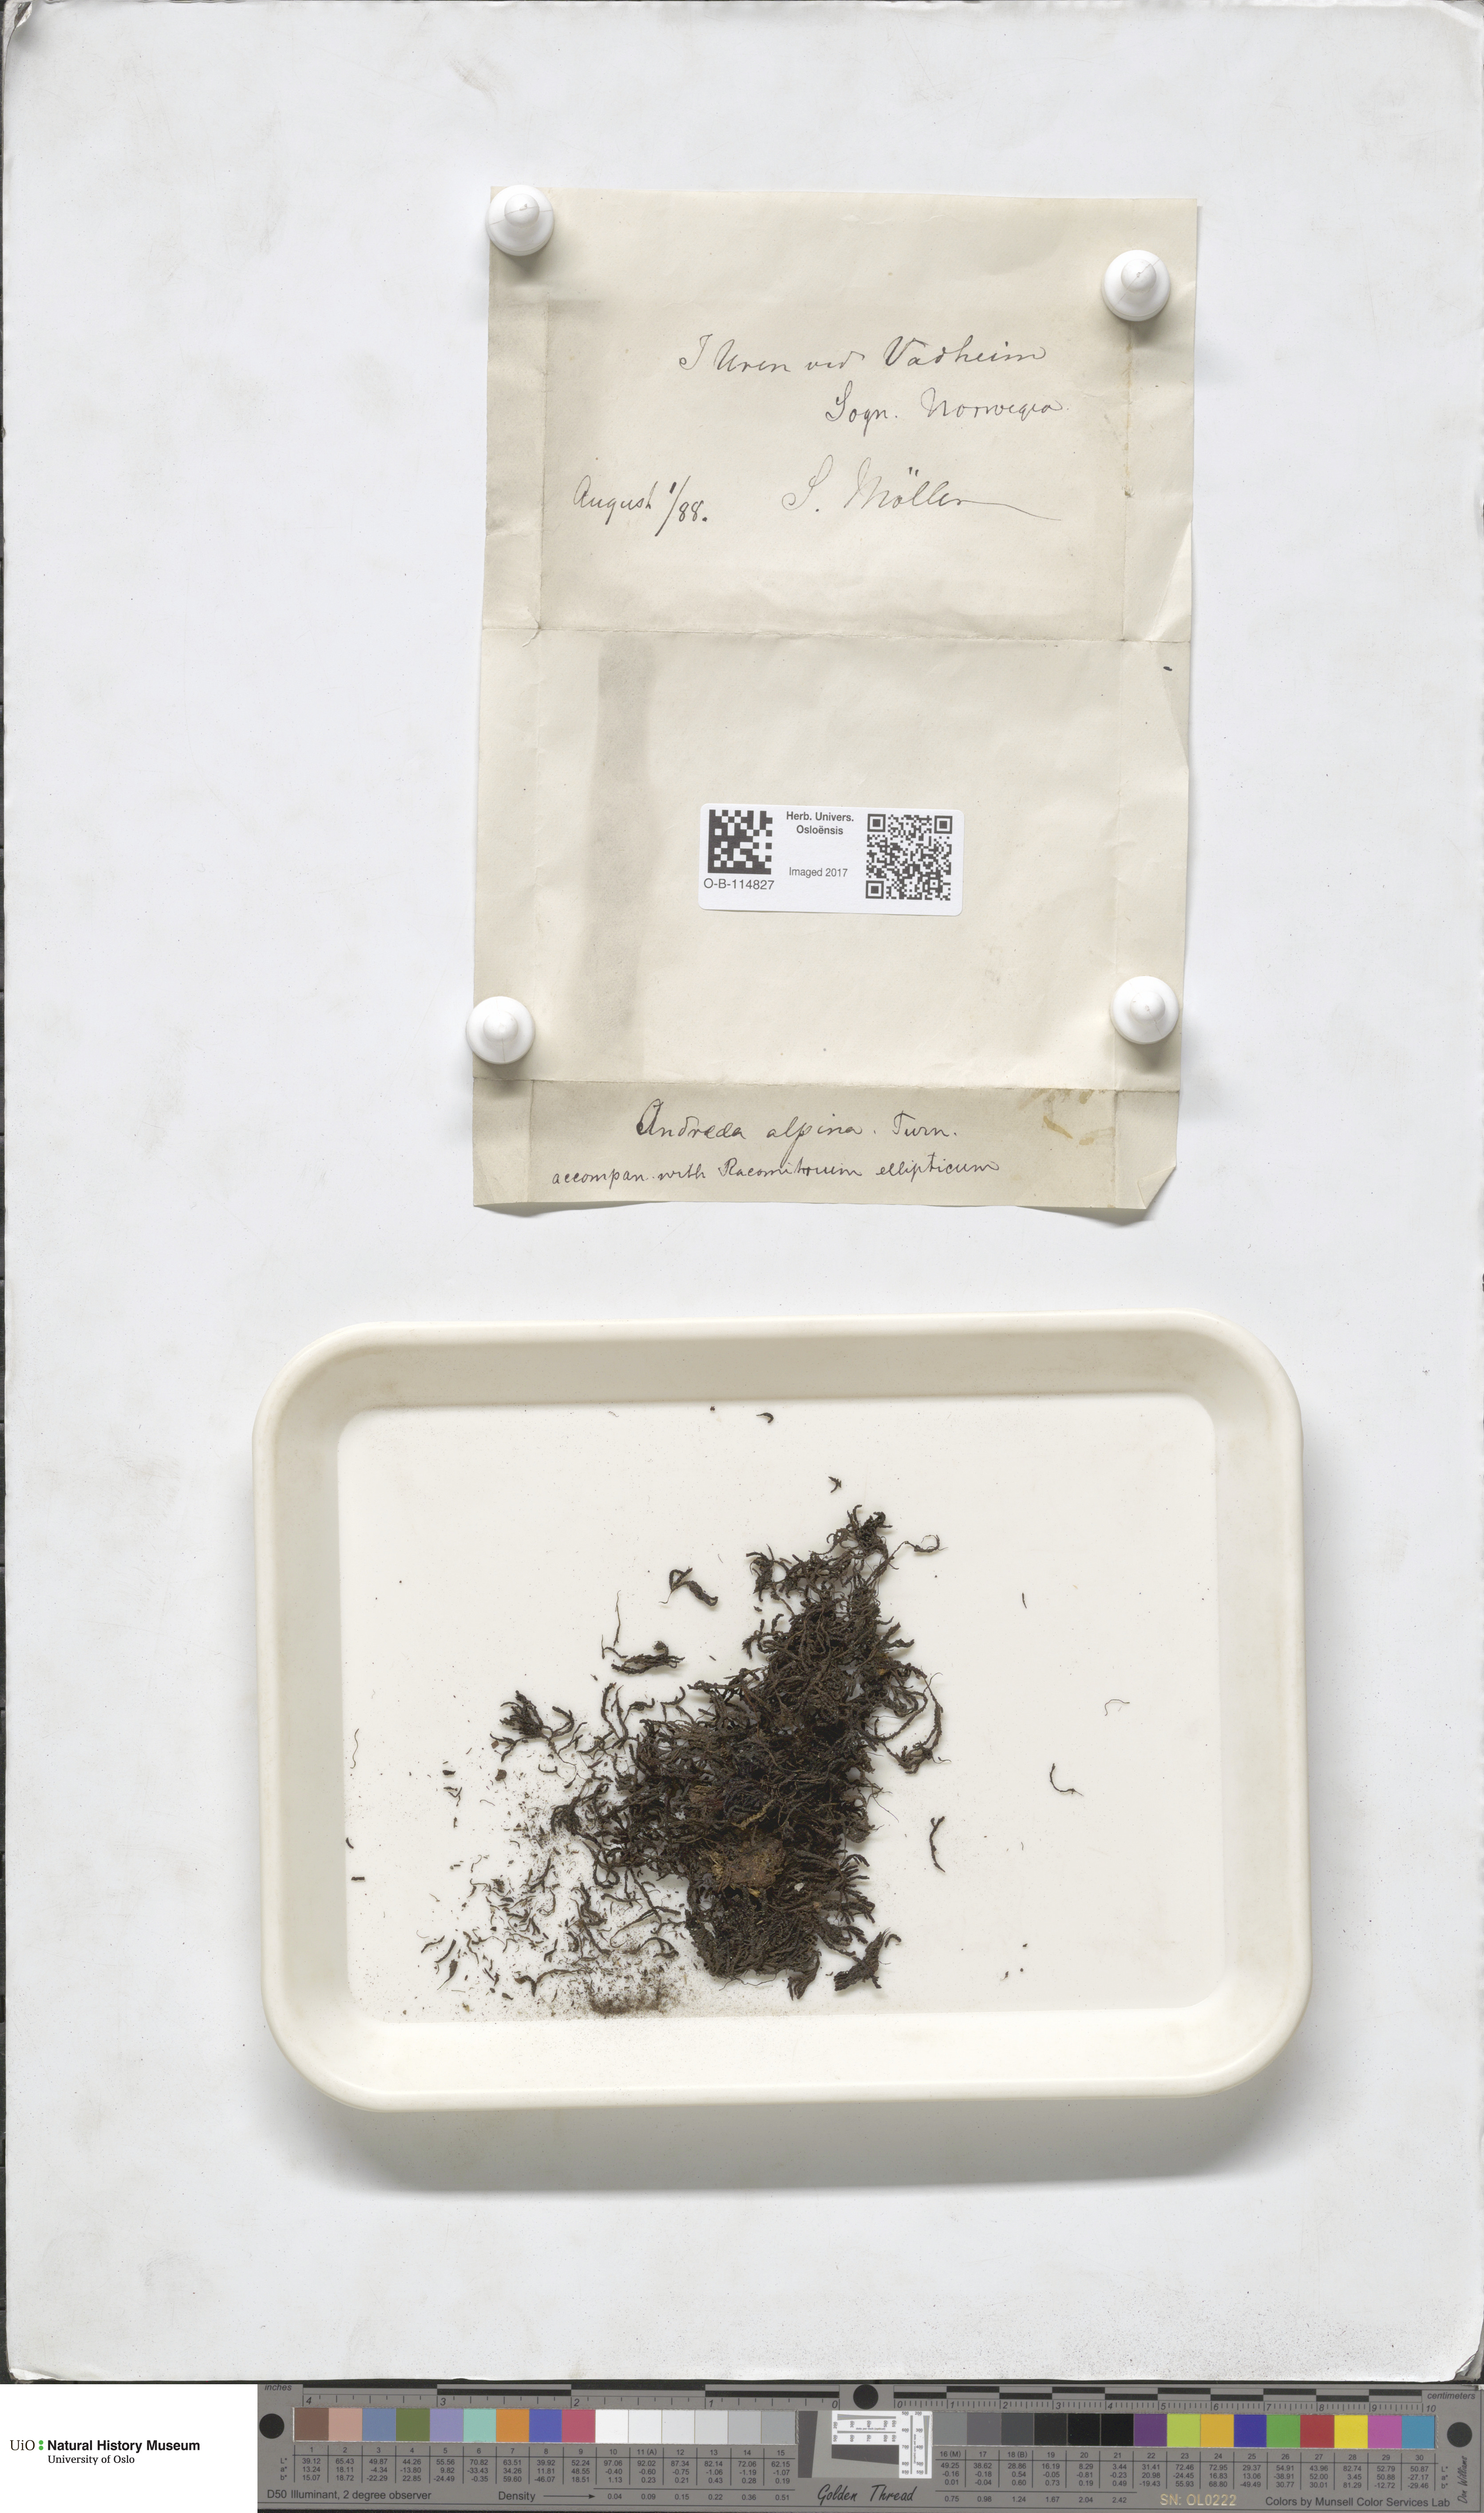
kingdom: Plantae
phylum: Bryophyta
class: Andreaeopsida
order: Andreaeales
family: Andreaeaceae
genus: Andreaea
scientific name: Andreaea hookeri
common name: Alpine rock-moss
